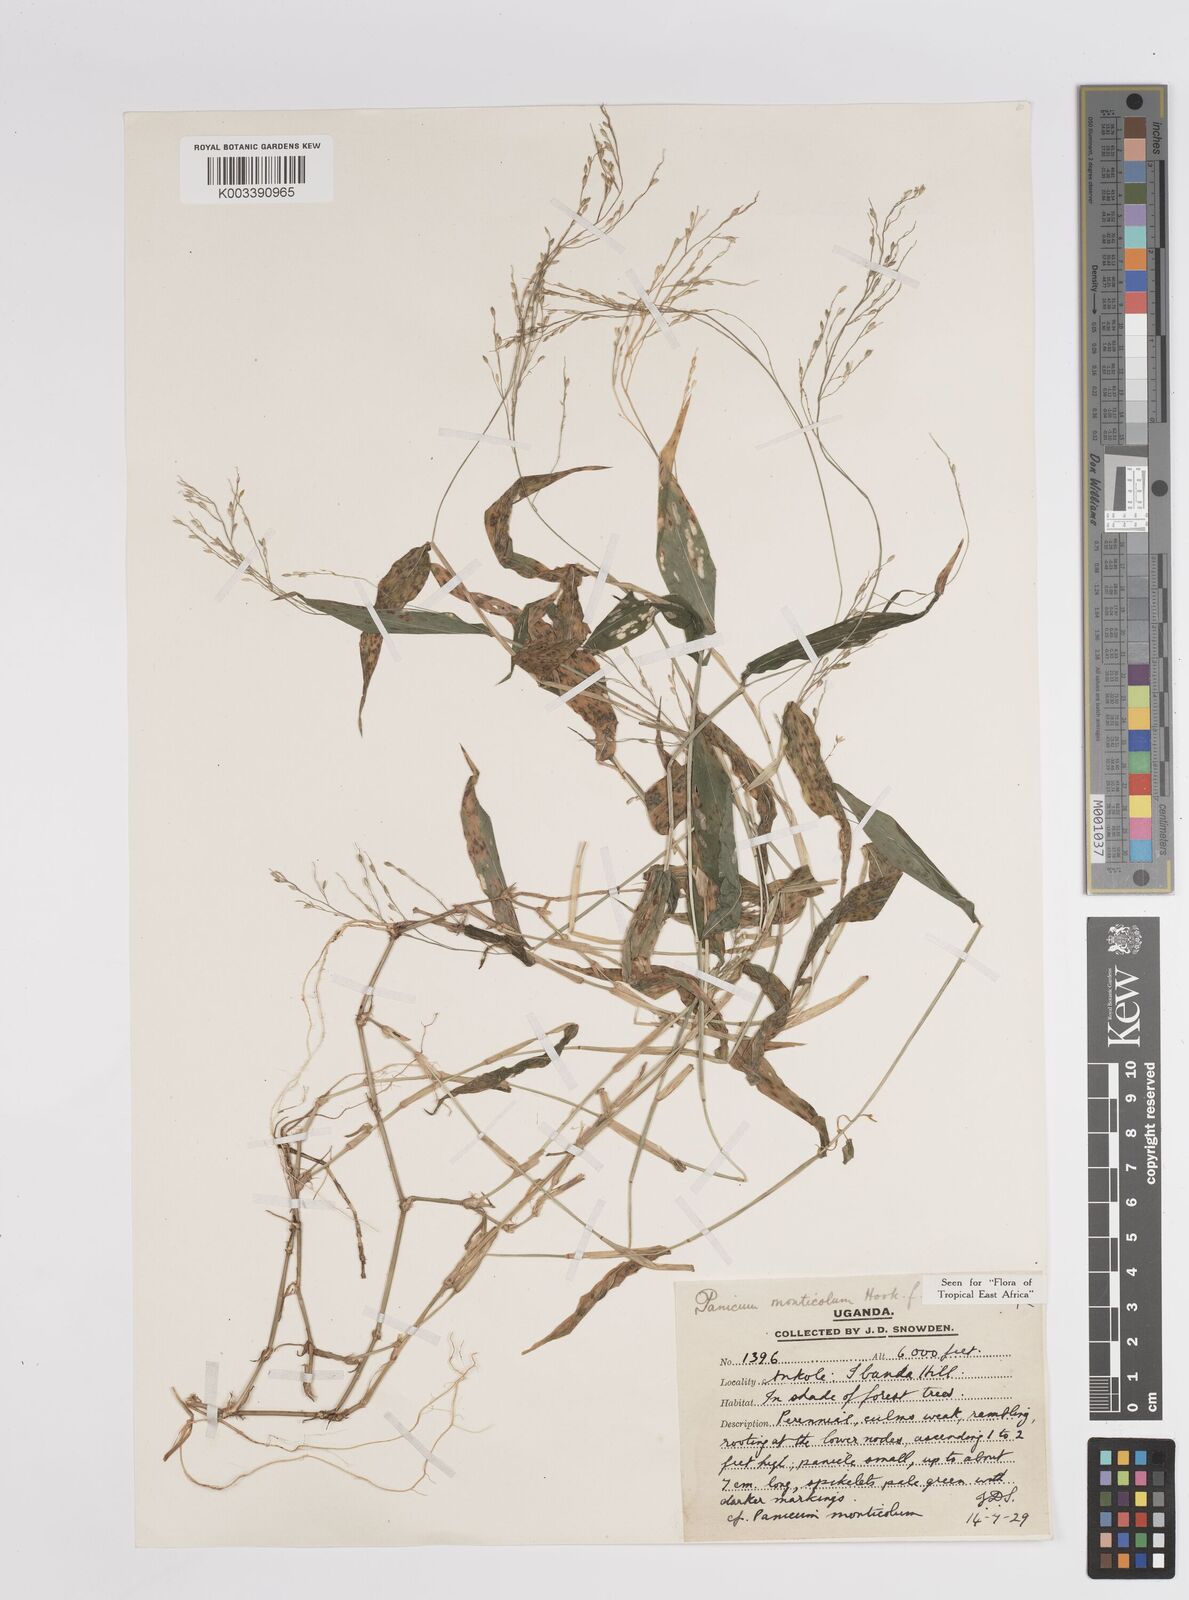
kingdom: Plantae
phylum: Tracheophyta
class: Liliopsida
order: Poales
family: Poaceae
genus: Panicum
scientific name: Panicum
